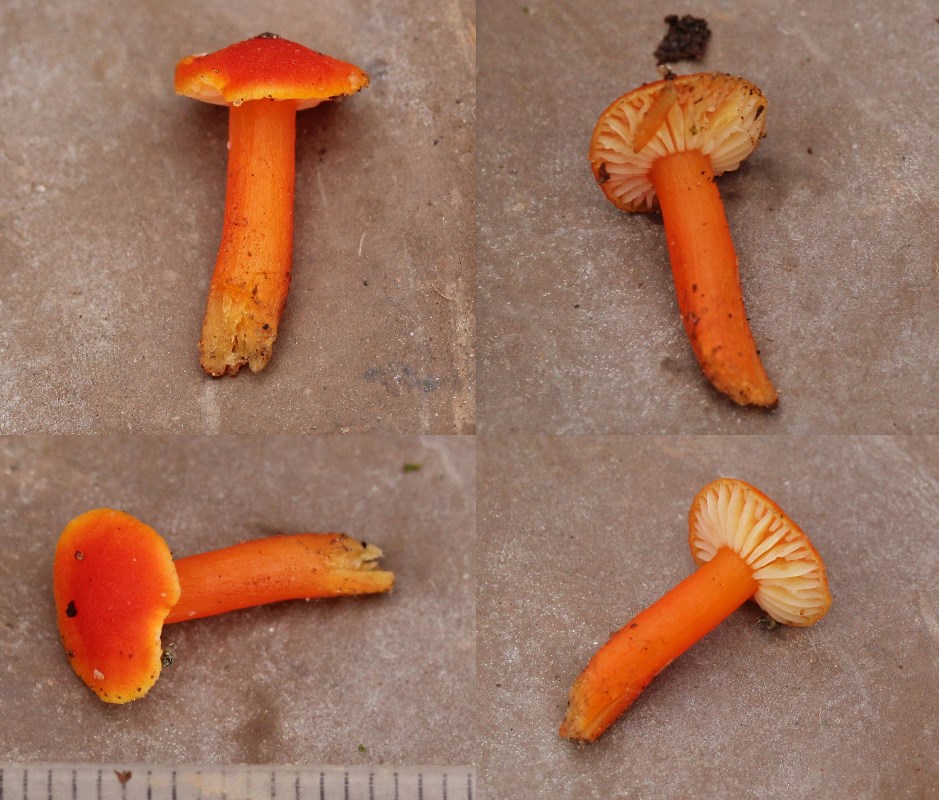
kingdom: Fungi
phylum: Basidiomycota
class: Agaricomycetes
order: Agaricales
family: Hygrophoraceae
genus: Hygrocybe
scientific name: Hygrocybe miniata
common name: mønje-vokshat
